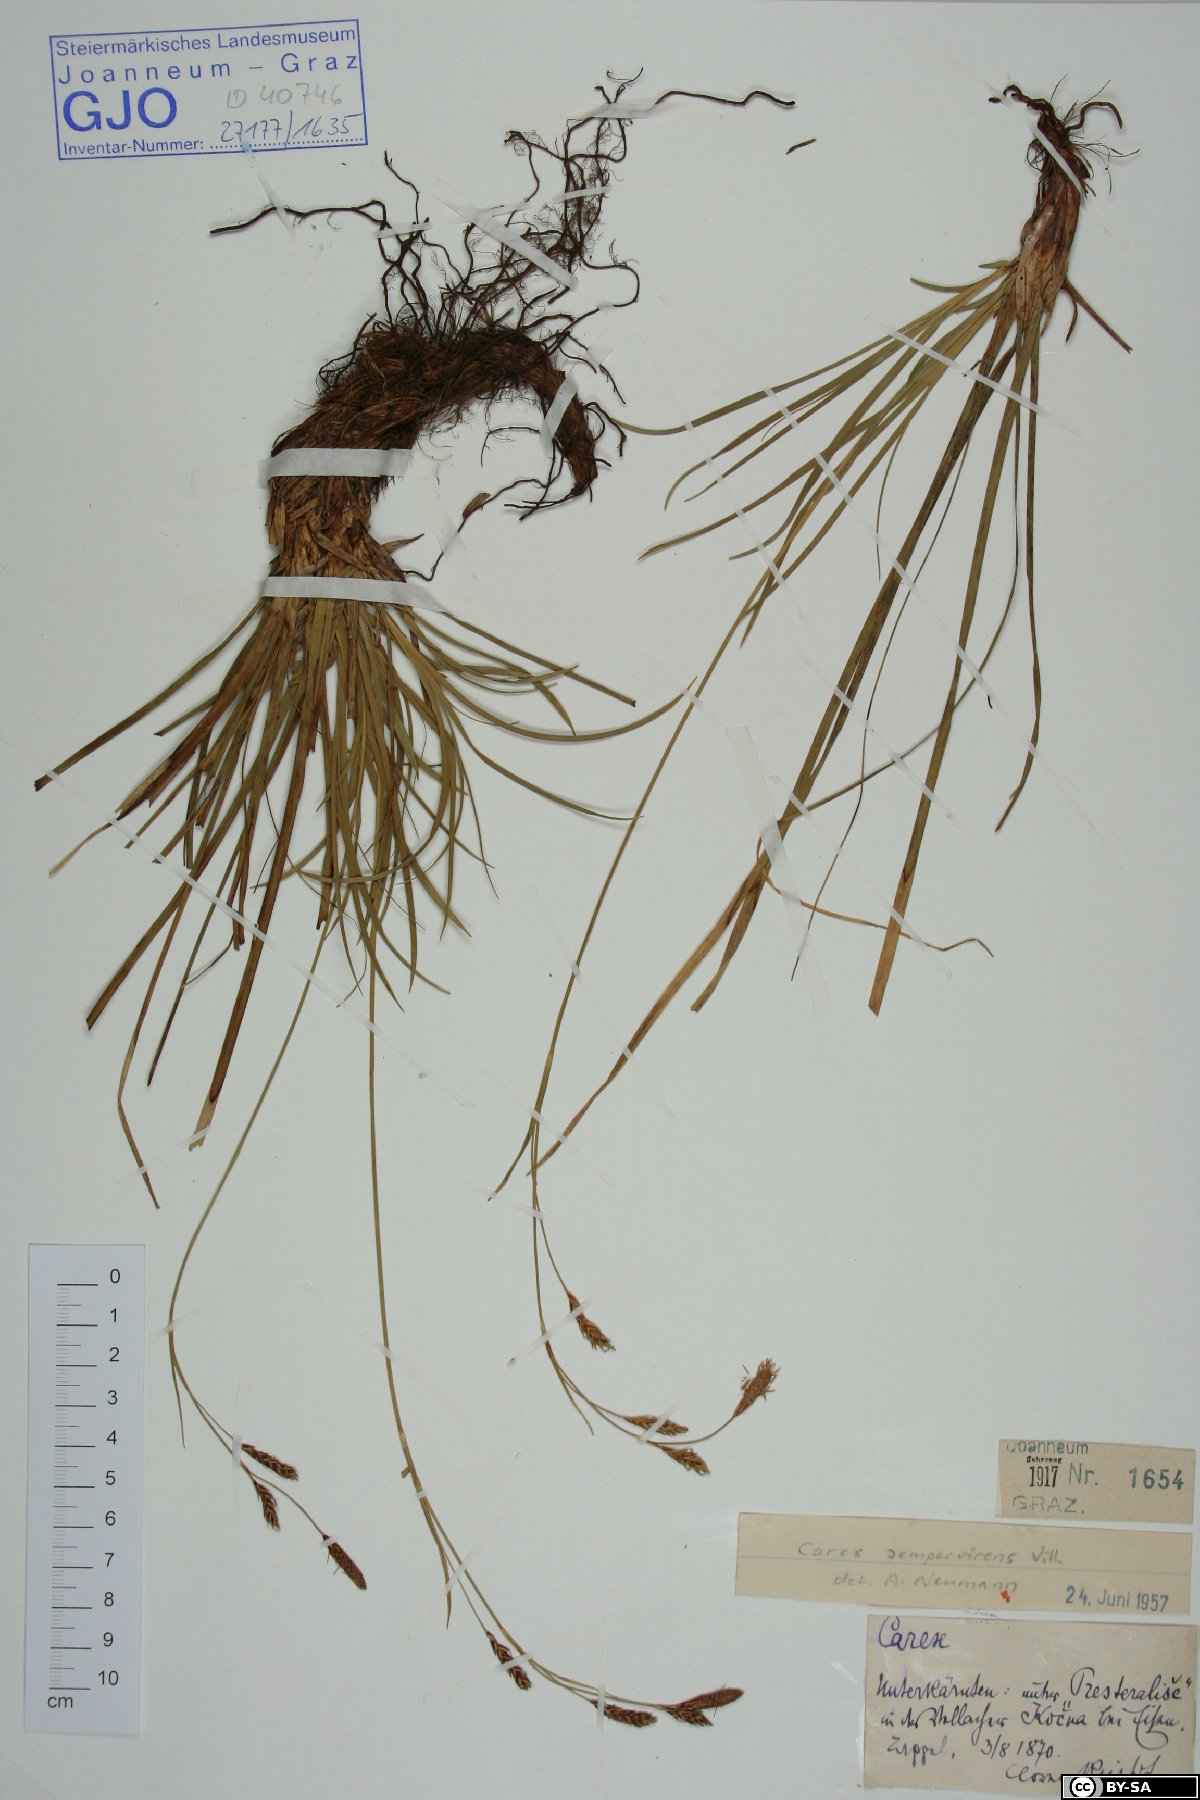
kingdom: Plantae
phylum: Tracheophyta
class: Liliopsida
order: Poales
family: Cyperaceae
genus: Carex
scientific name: Carex sempervirens
